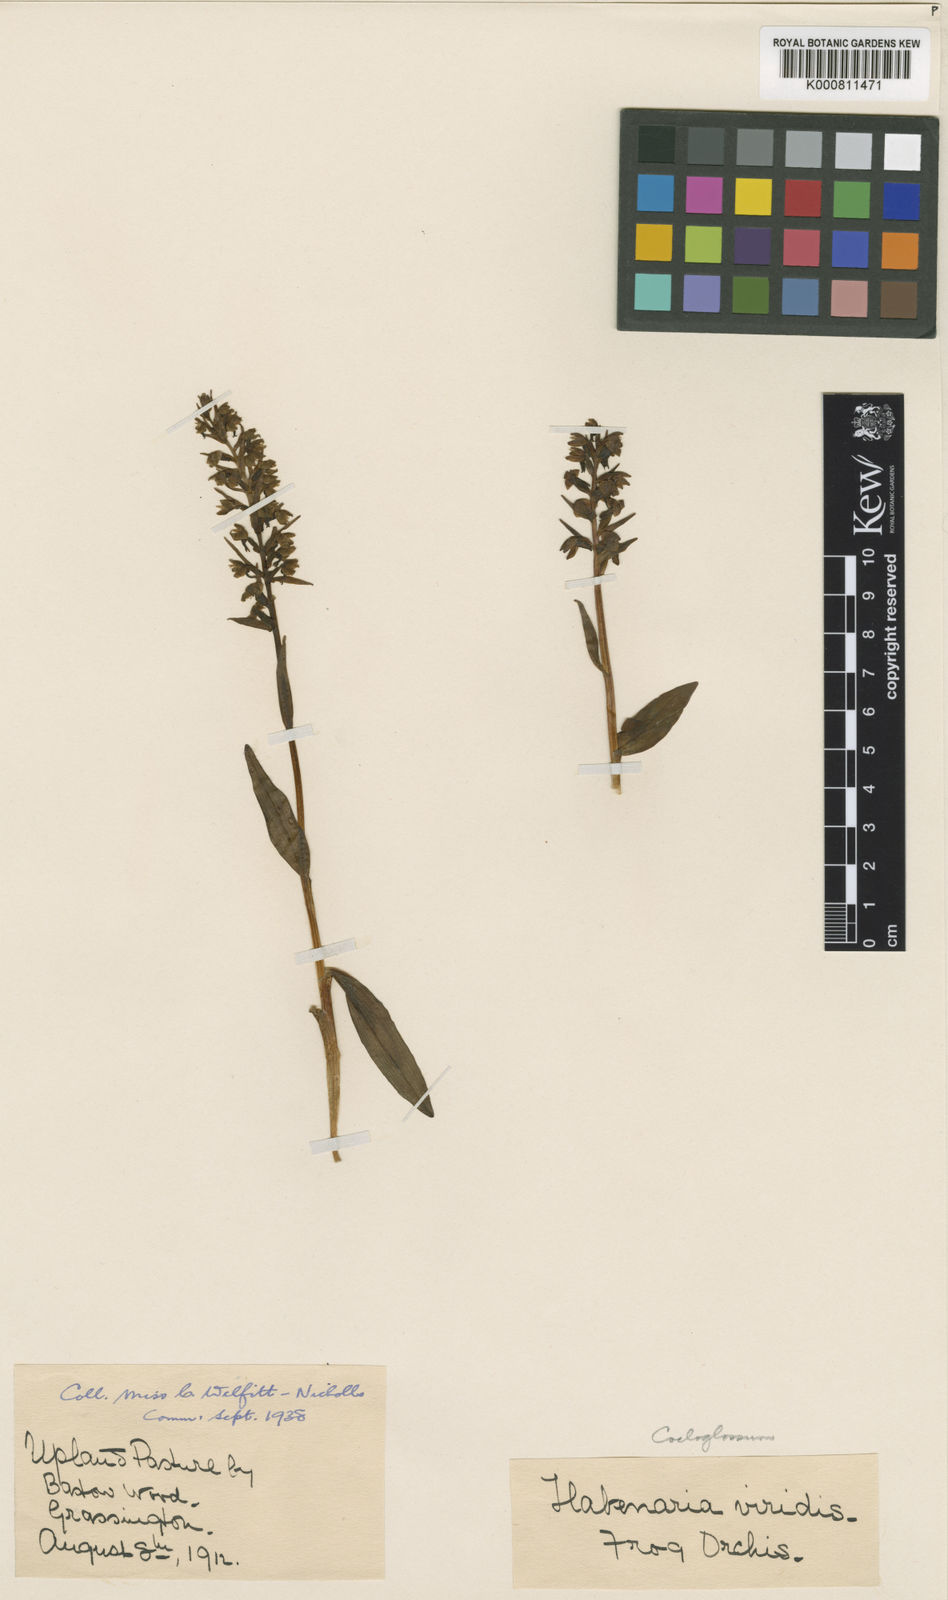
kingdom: Plantae
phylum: Tracheophyta
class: Liliopsida
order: Asparagales
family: Orchidaceae
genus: Dactylorhiza
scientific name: Dactylorhiza viridis
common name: Longbract frog orchid
